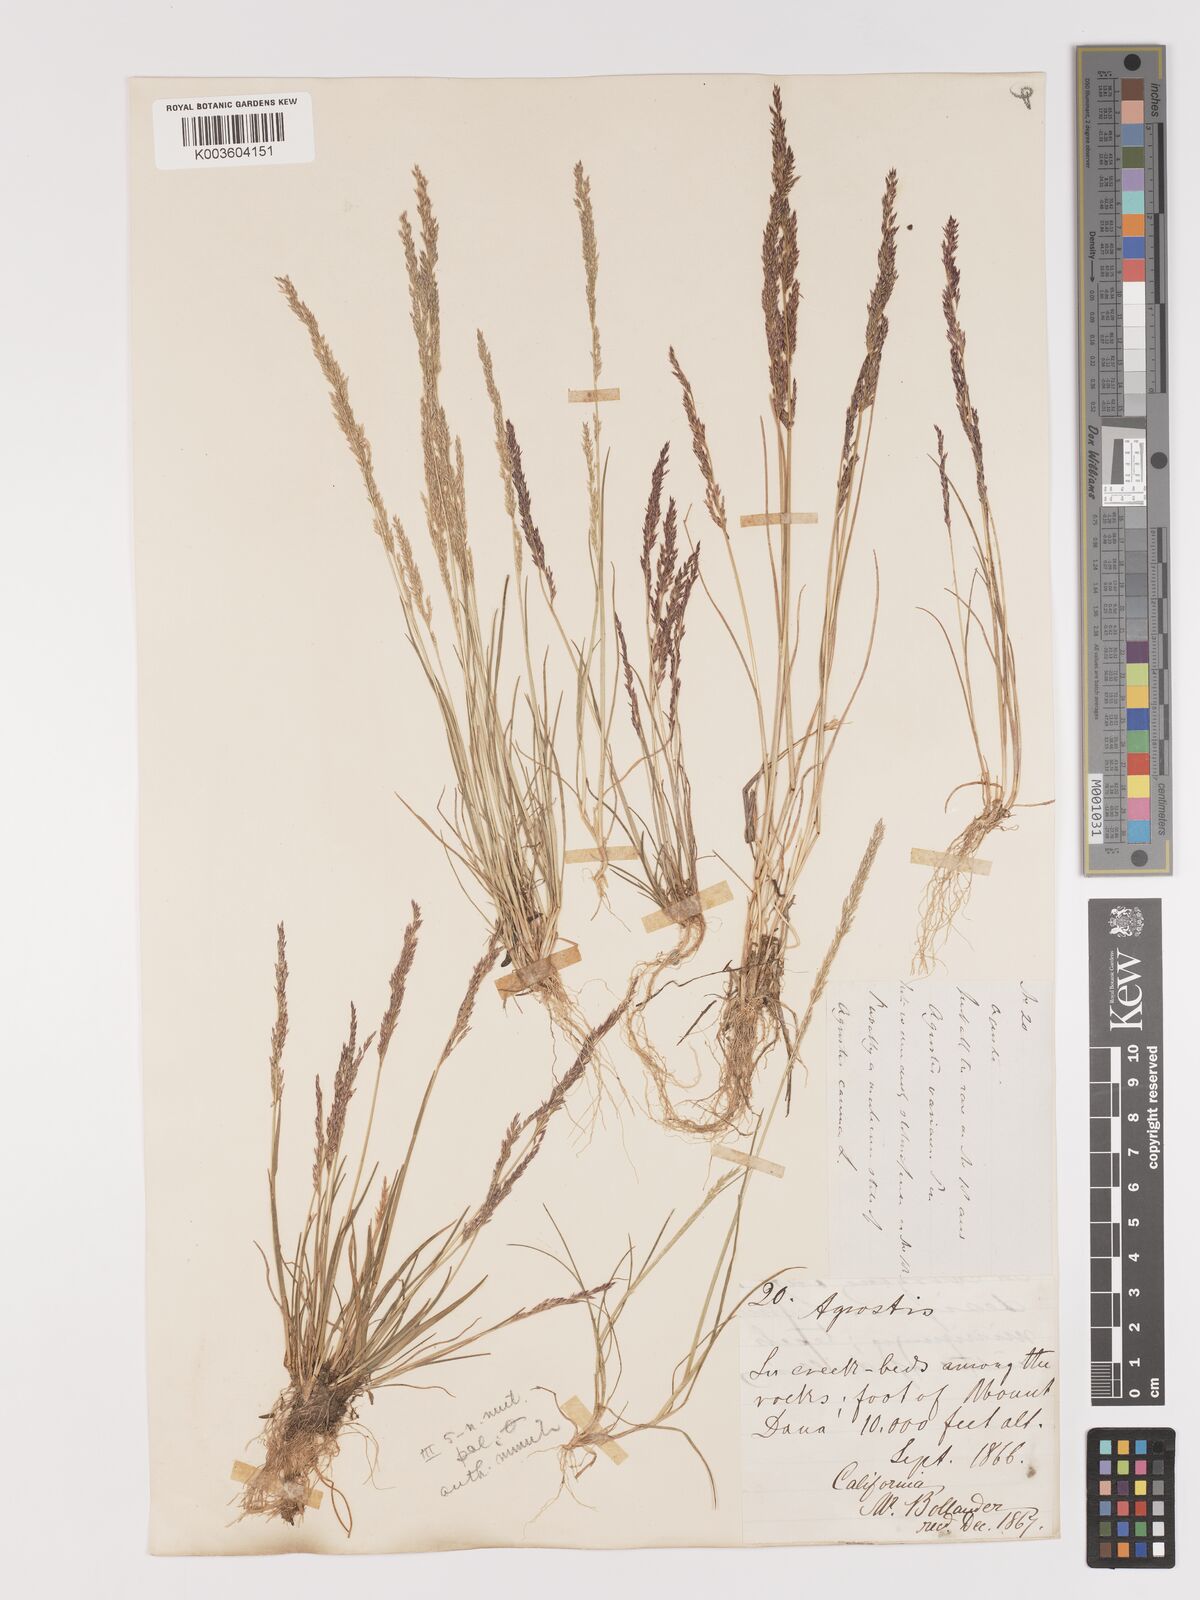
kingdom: Plantae
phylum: Tracheophyta
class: Liliopsida
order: Poales
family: Poaceae
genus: Agrostis
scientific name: Agrostis rossiae
